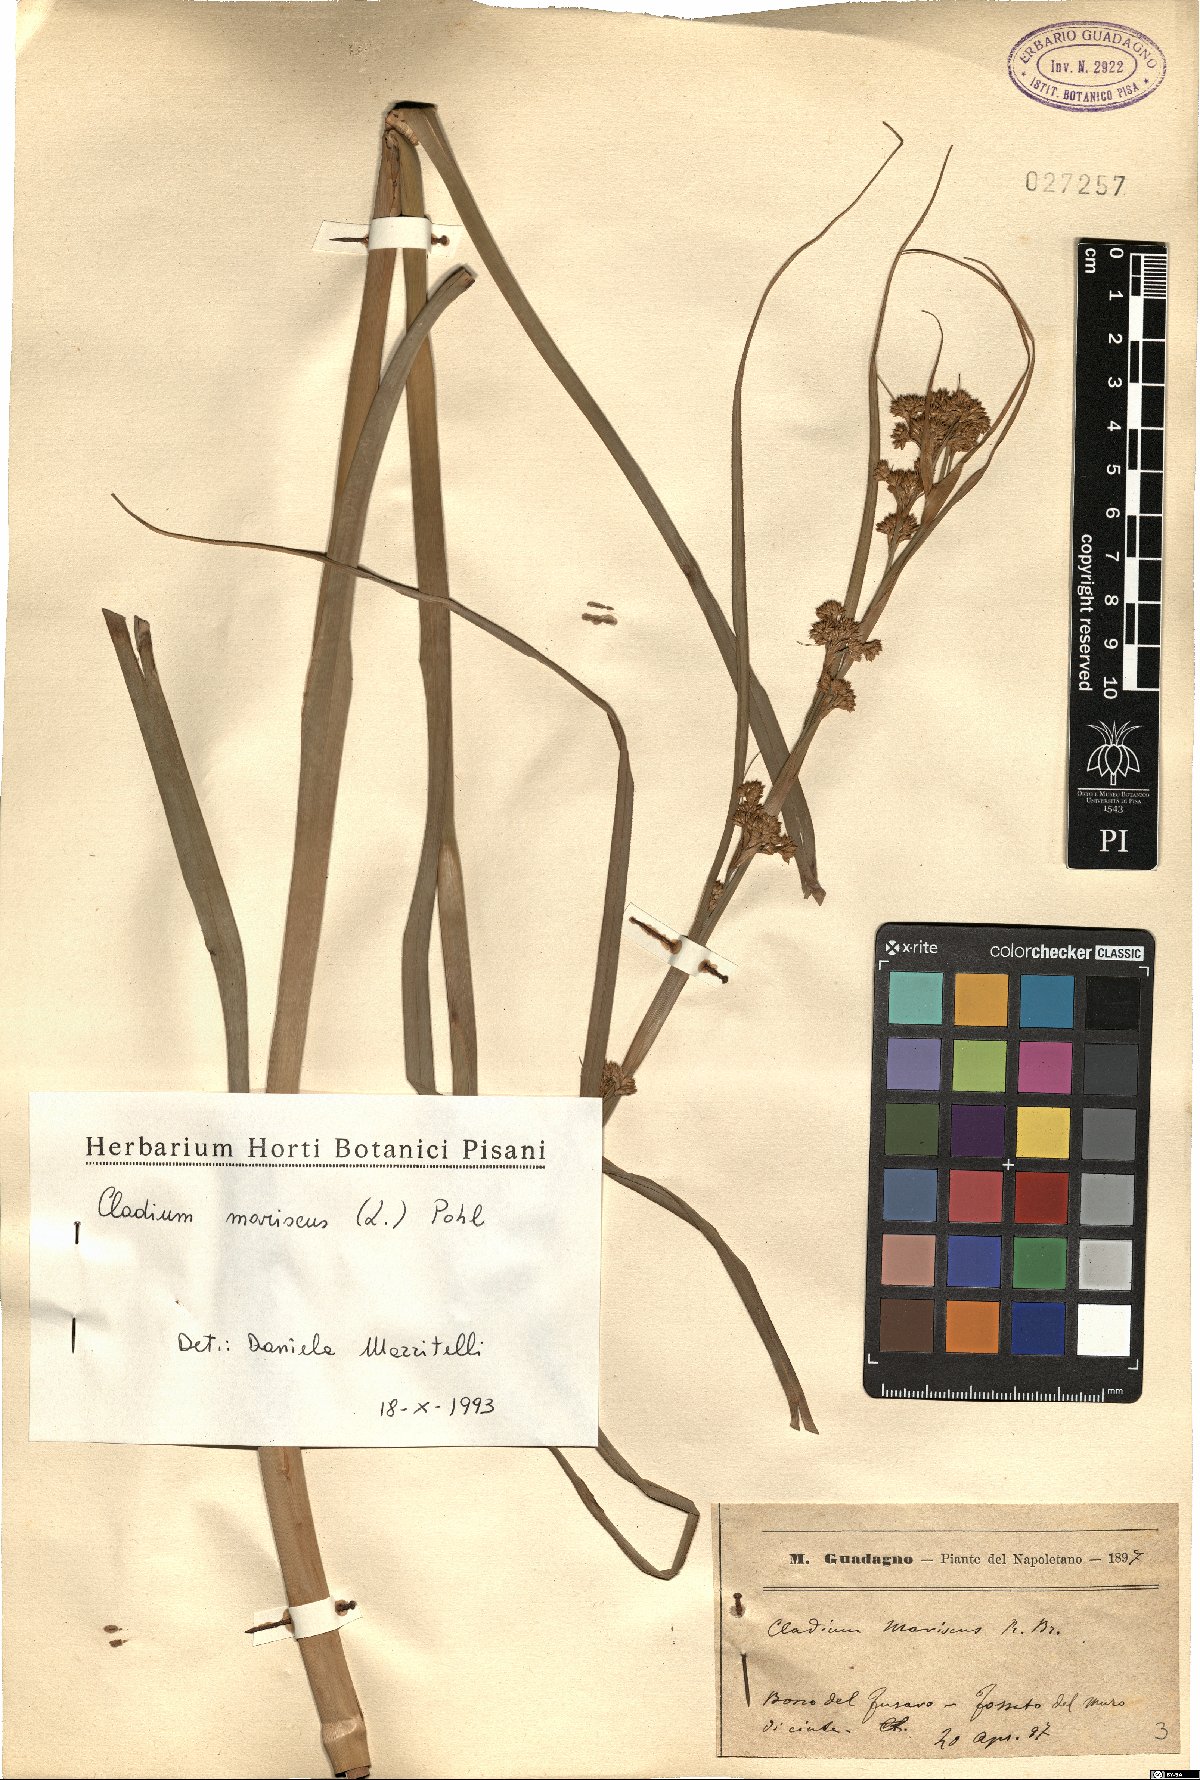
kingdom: Plantae
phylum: Tracheophyta
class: Liliopsida
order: Poales
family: Cyperaceae
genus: Cladium
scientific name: Cladium mariscus
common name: Great fen-sedge
